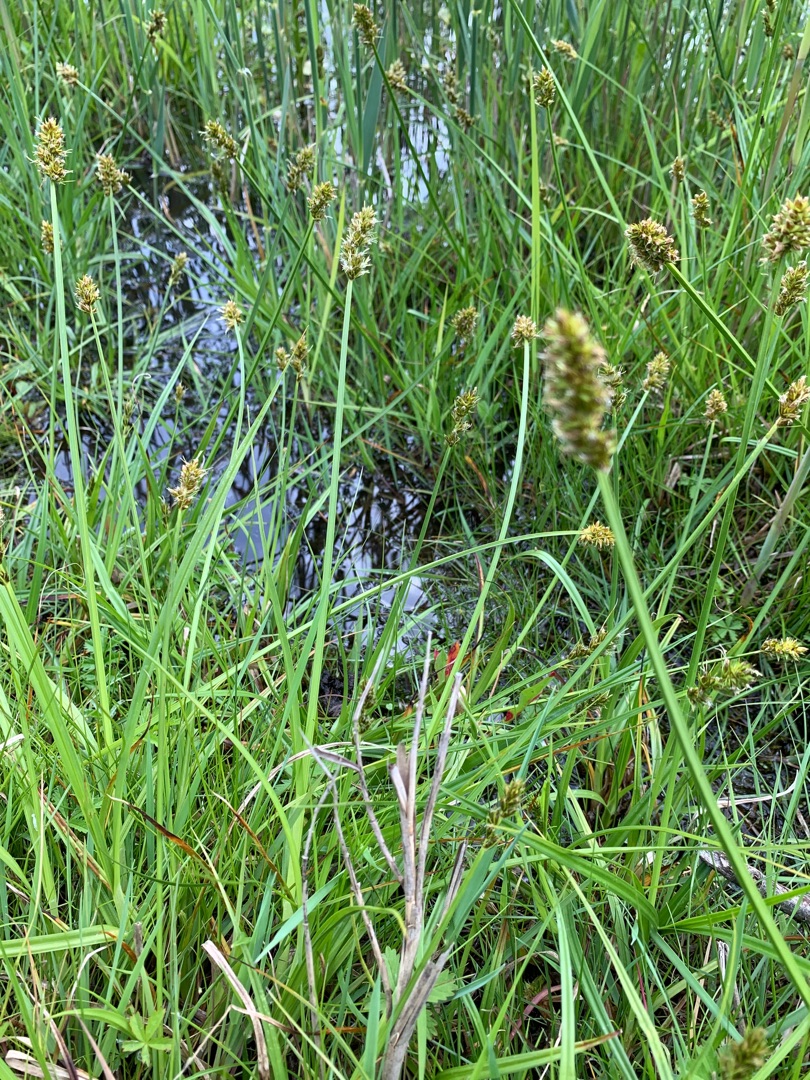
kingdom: Plantae
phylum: Tracheophyta
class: Liliopsida
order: Poales
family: Cyperaceae
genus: Carex
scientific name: Carex otrubae
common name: Sylt-star
